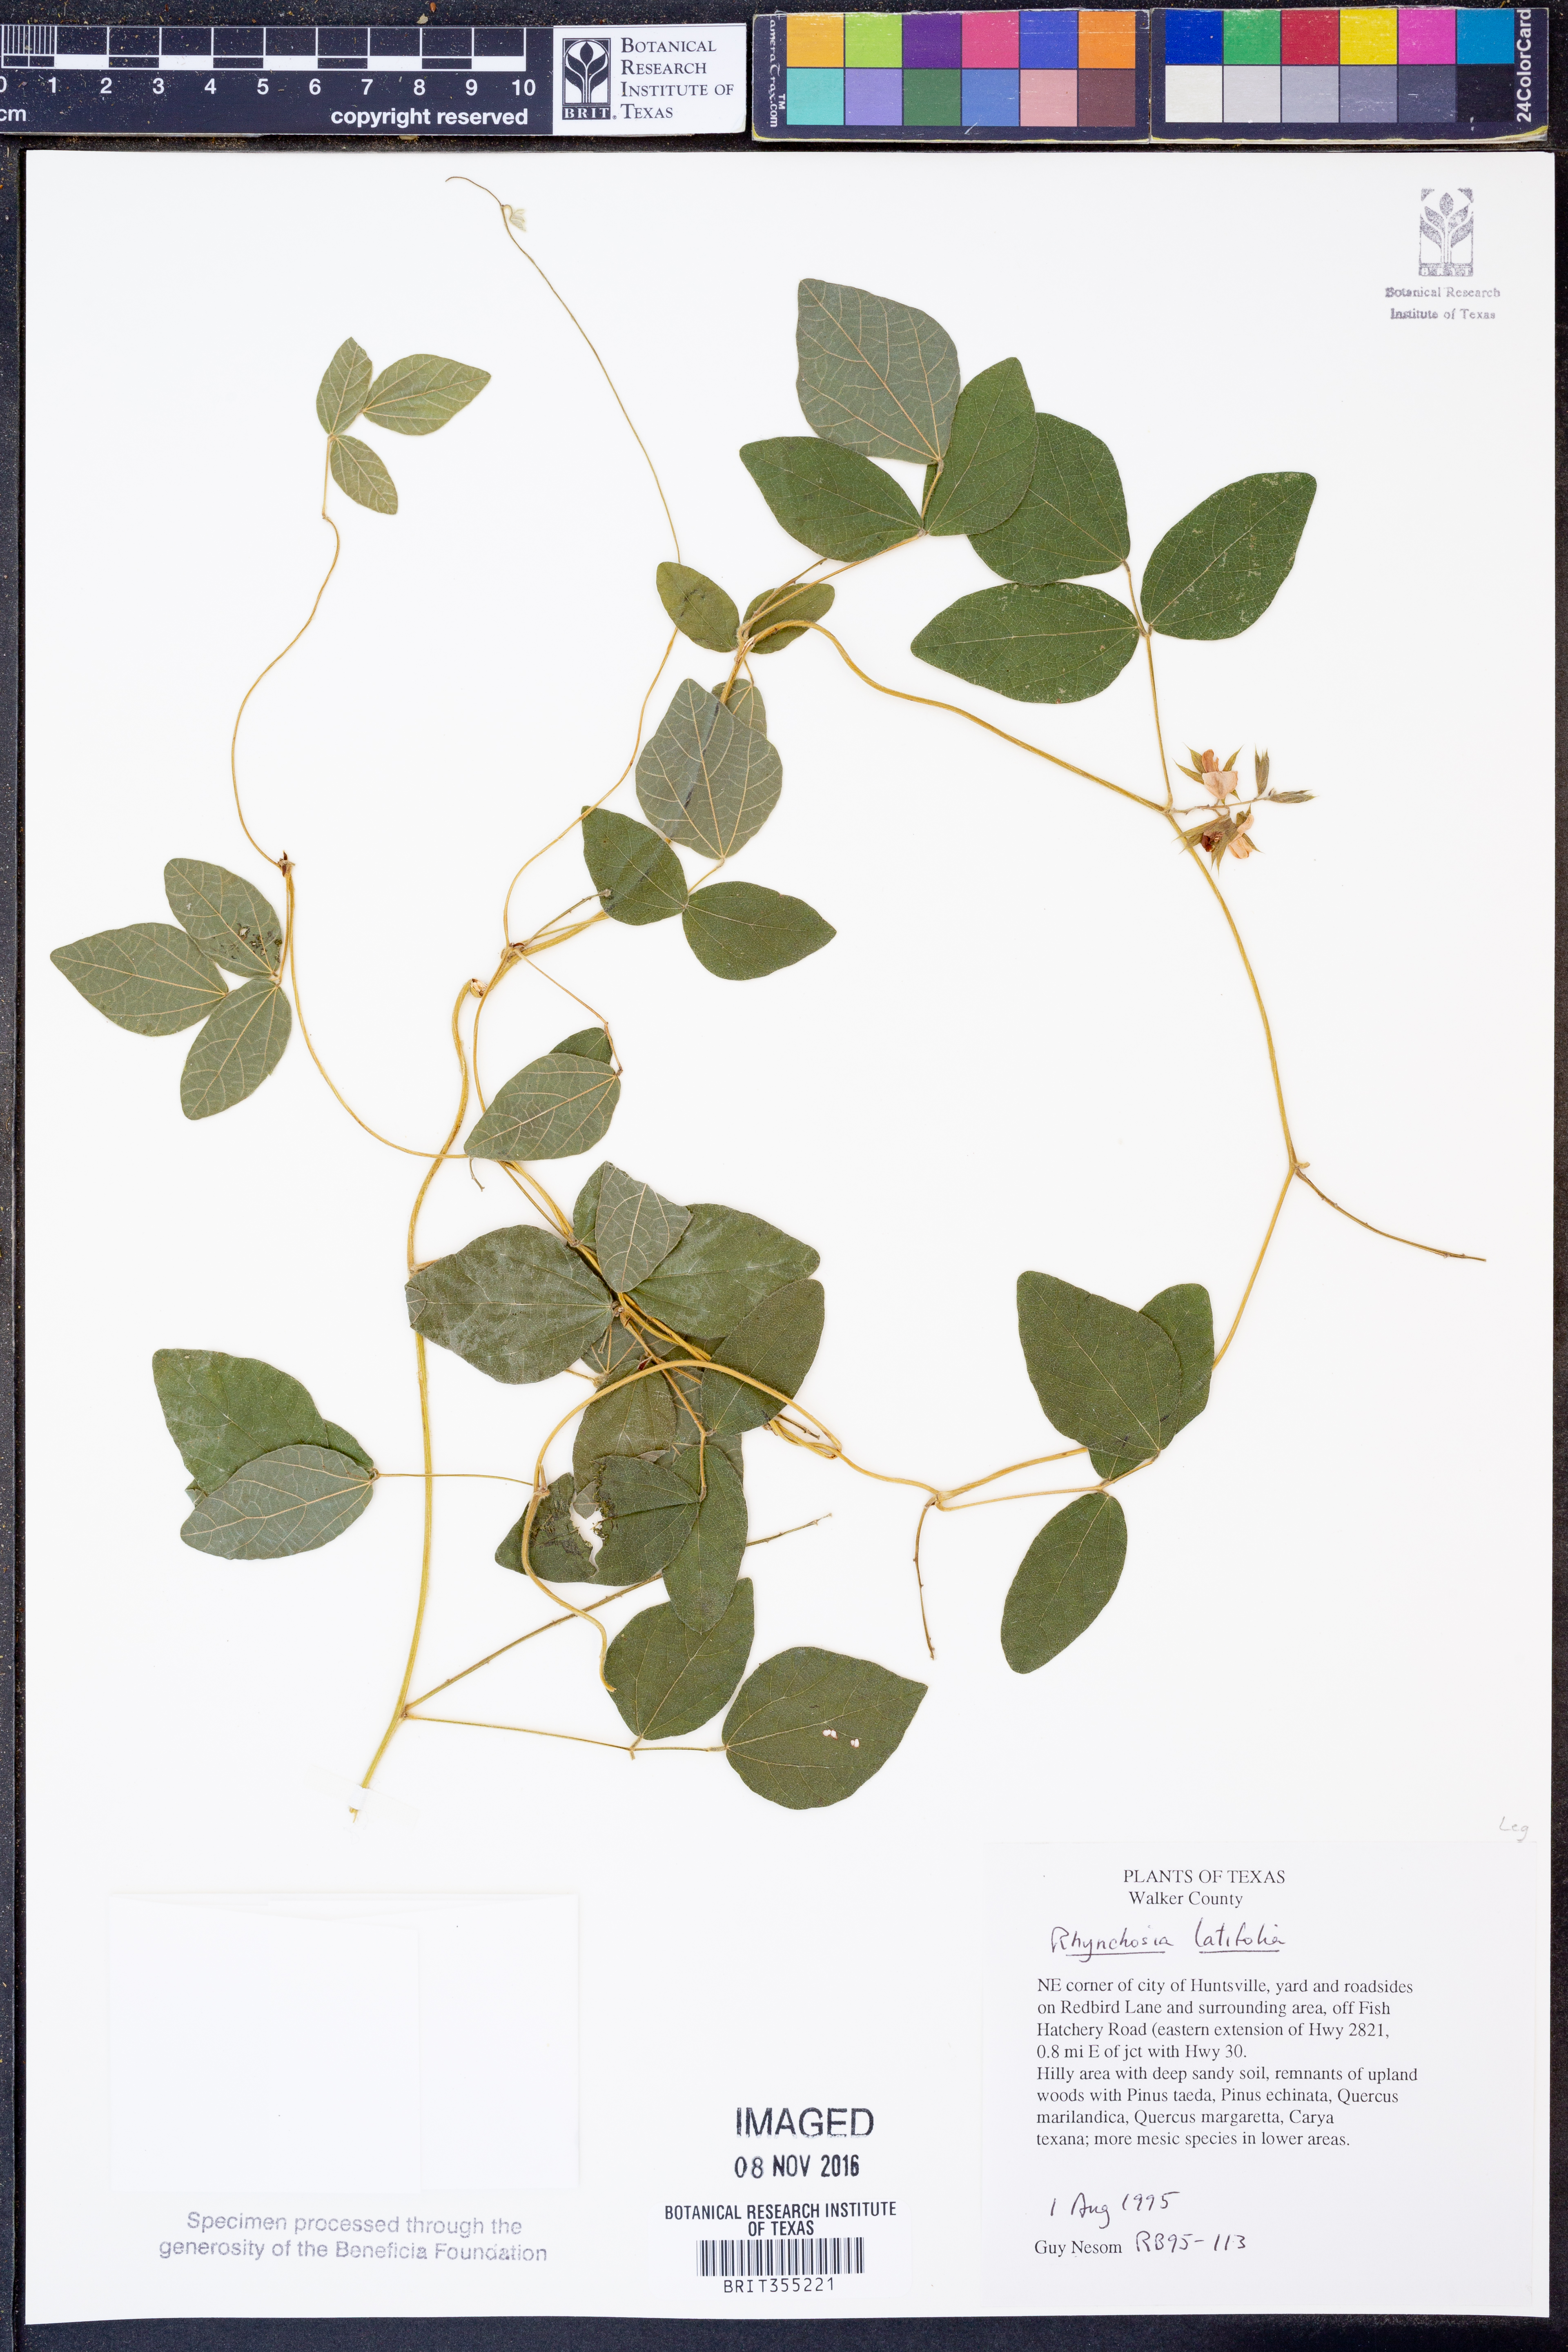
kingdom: Plantae
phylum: Tracheophyta
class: Magnoliopsida
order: Fabales
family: Fabaceae
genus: Rhynchosia
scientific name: Rhynchosia latifolia
